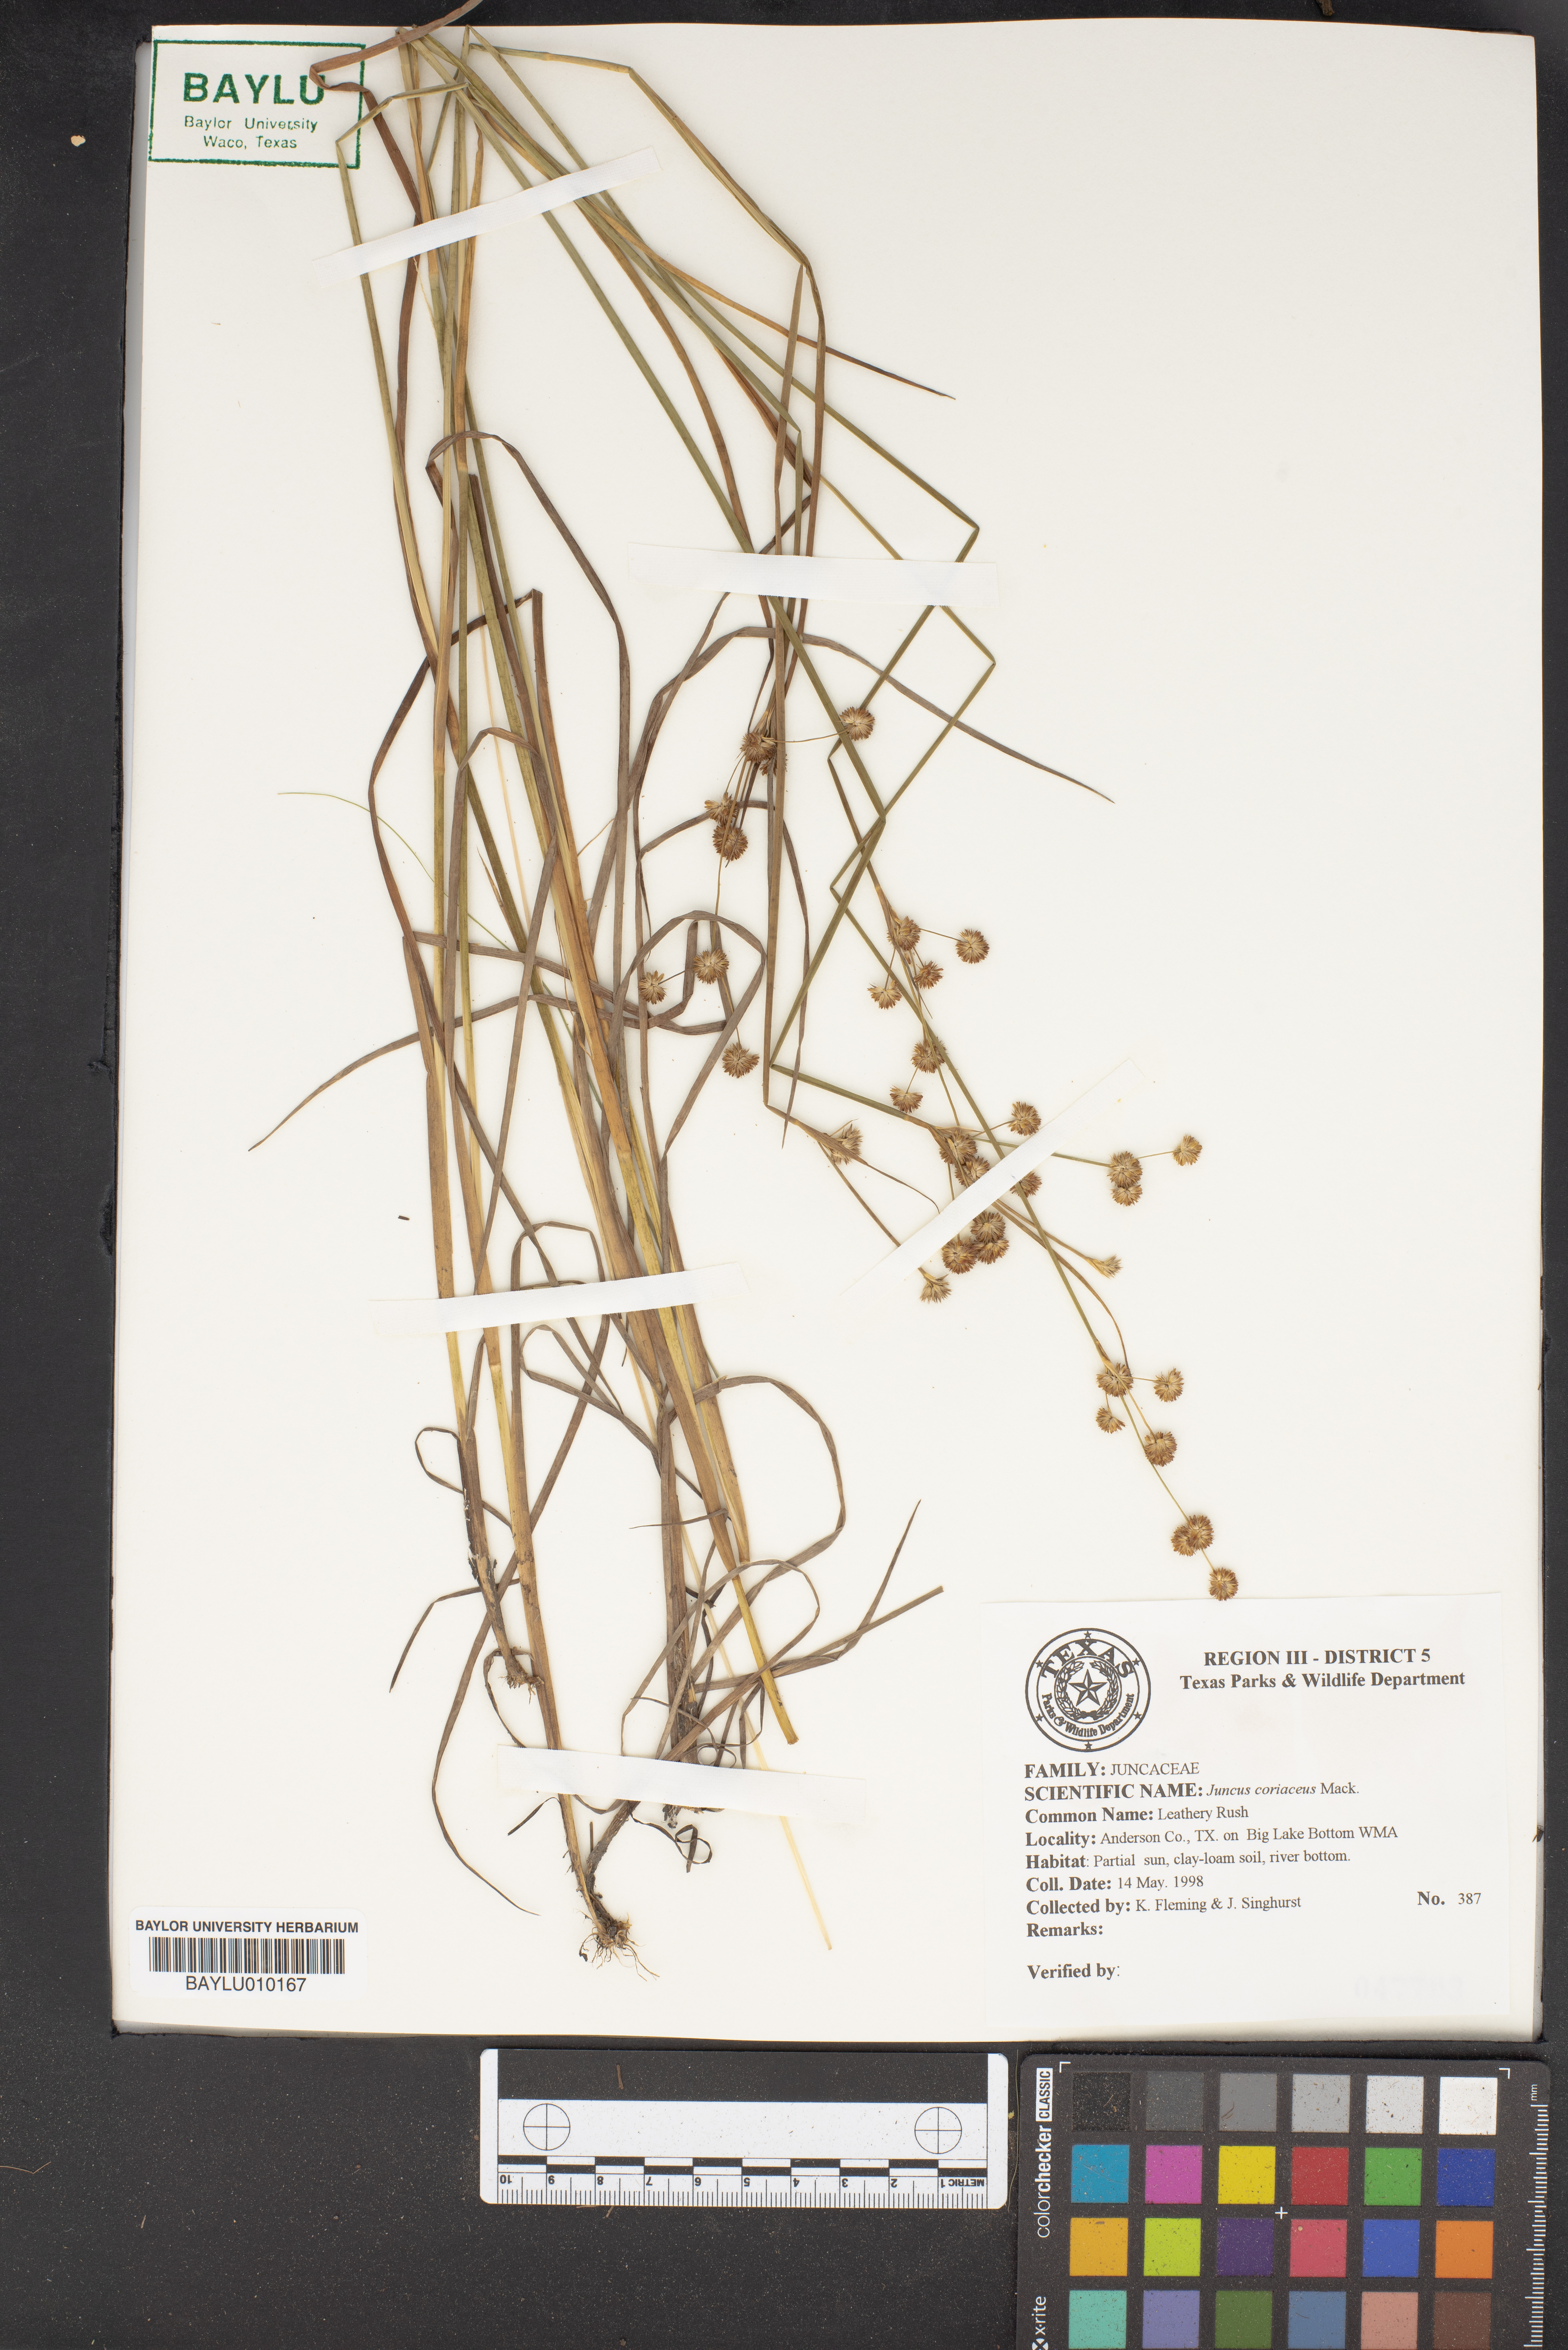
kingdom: Plantae
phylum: Tracheophyta
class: Liliopsida
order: Poales
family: Juncaceae
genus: Juncus
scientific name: Juncus coriaceus
